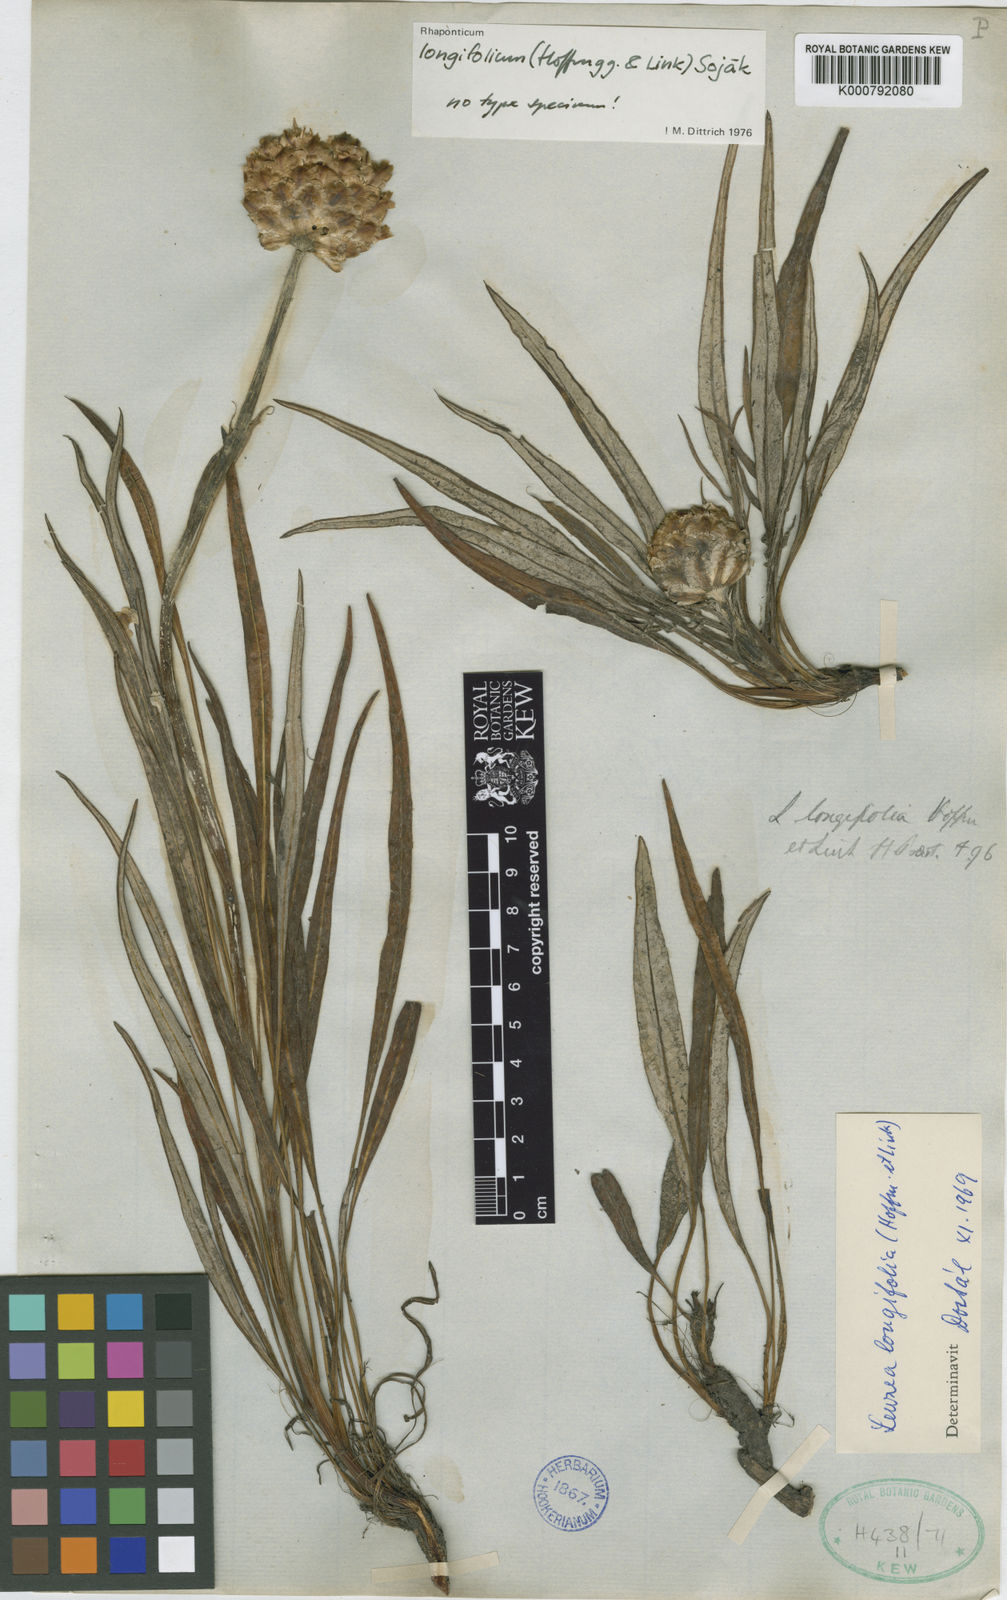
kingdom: Plantae
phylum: Tracheophyta
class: Magnoliopsida
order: Asterales
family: Asteraceae
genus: Leuzea
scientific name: Leuzea longifolia
